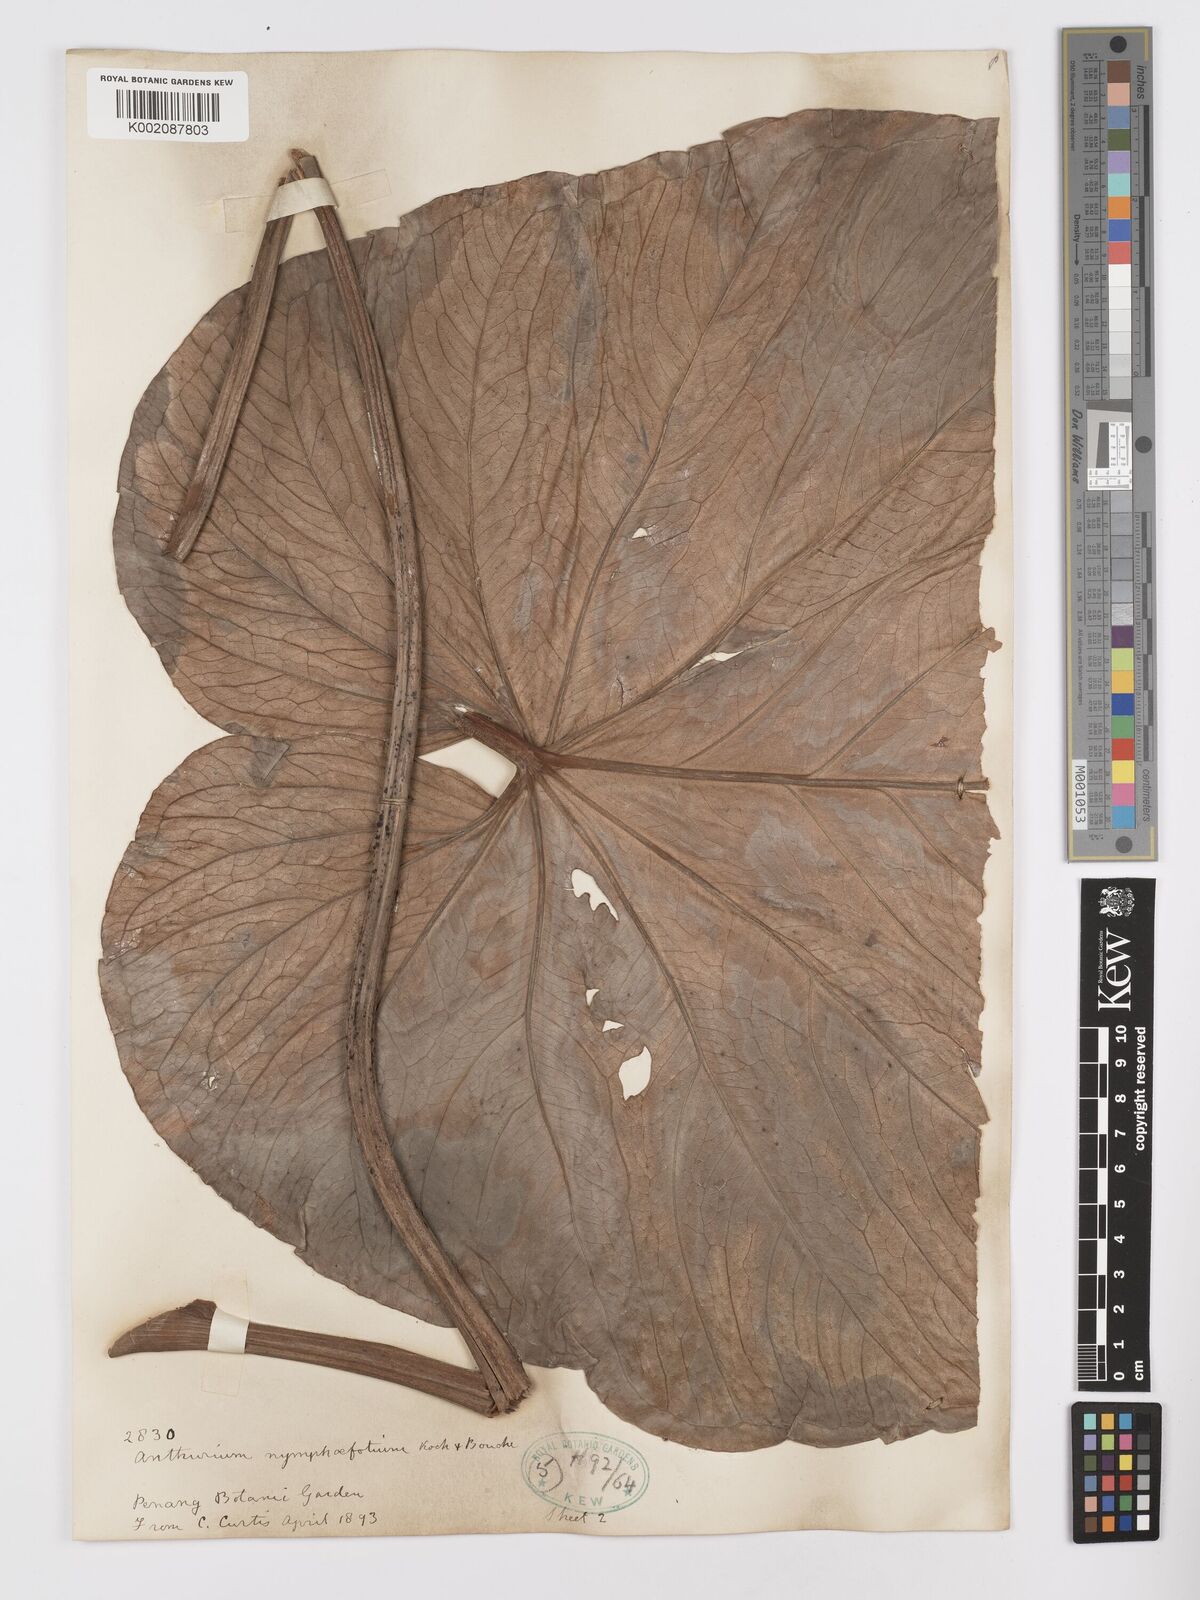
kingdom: Plantae
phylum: Tracheophyta
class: Liliopsida
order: Alismatales
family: Araceae
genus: Anthurium
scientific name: Anthurium nymphaeifolium
